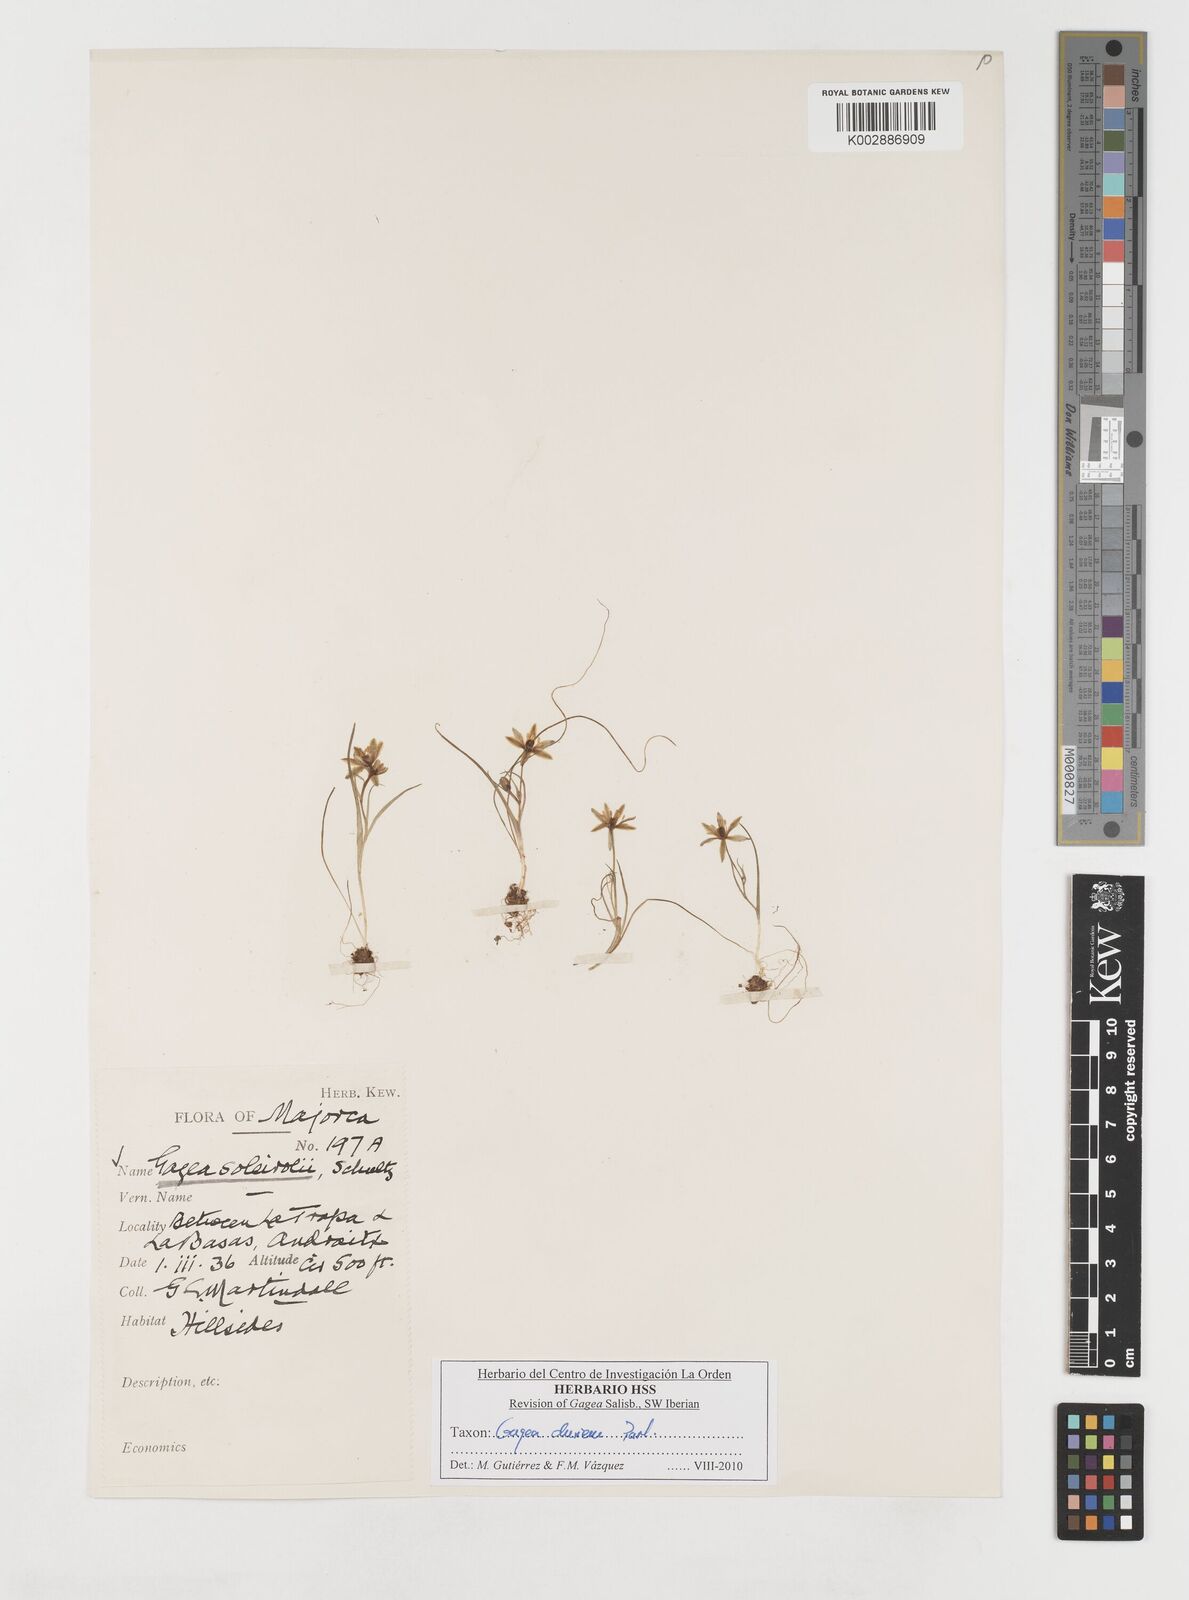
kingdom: Plantae
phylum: Tracheophyta
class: Liliopsida
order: Liliales
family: Liliaceae
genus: Gagea
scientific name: Gagea durieui
